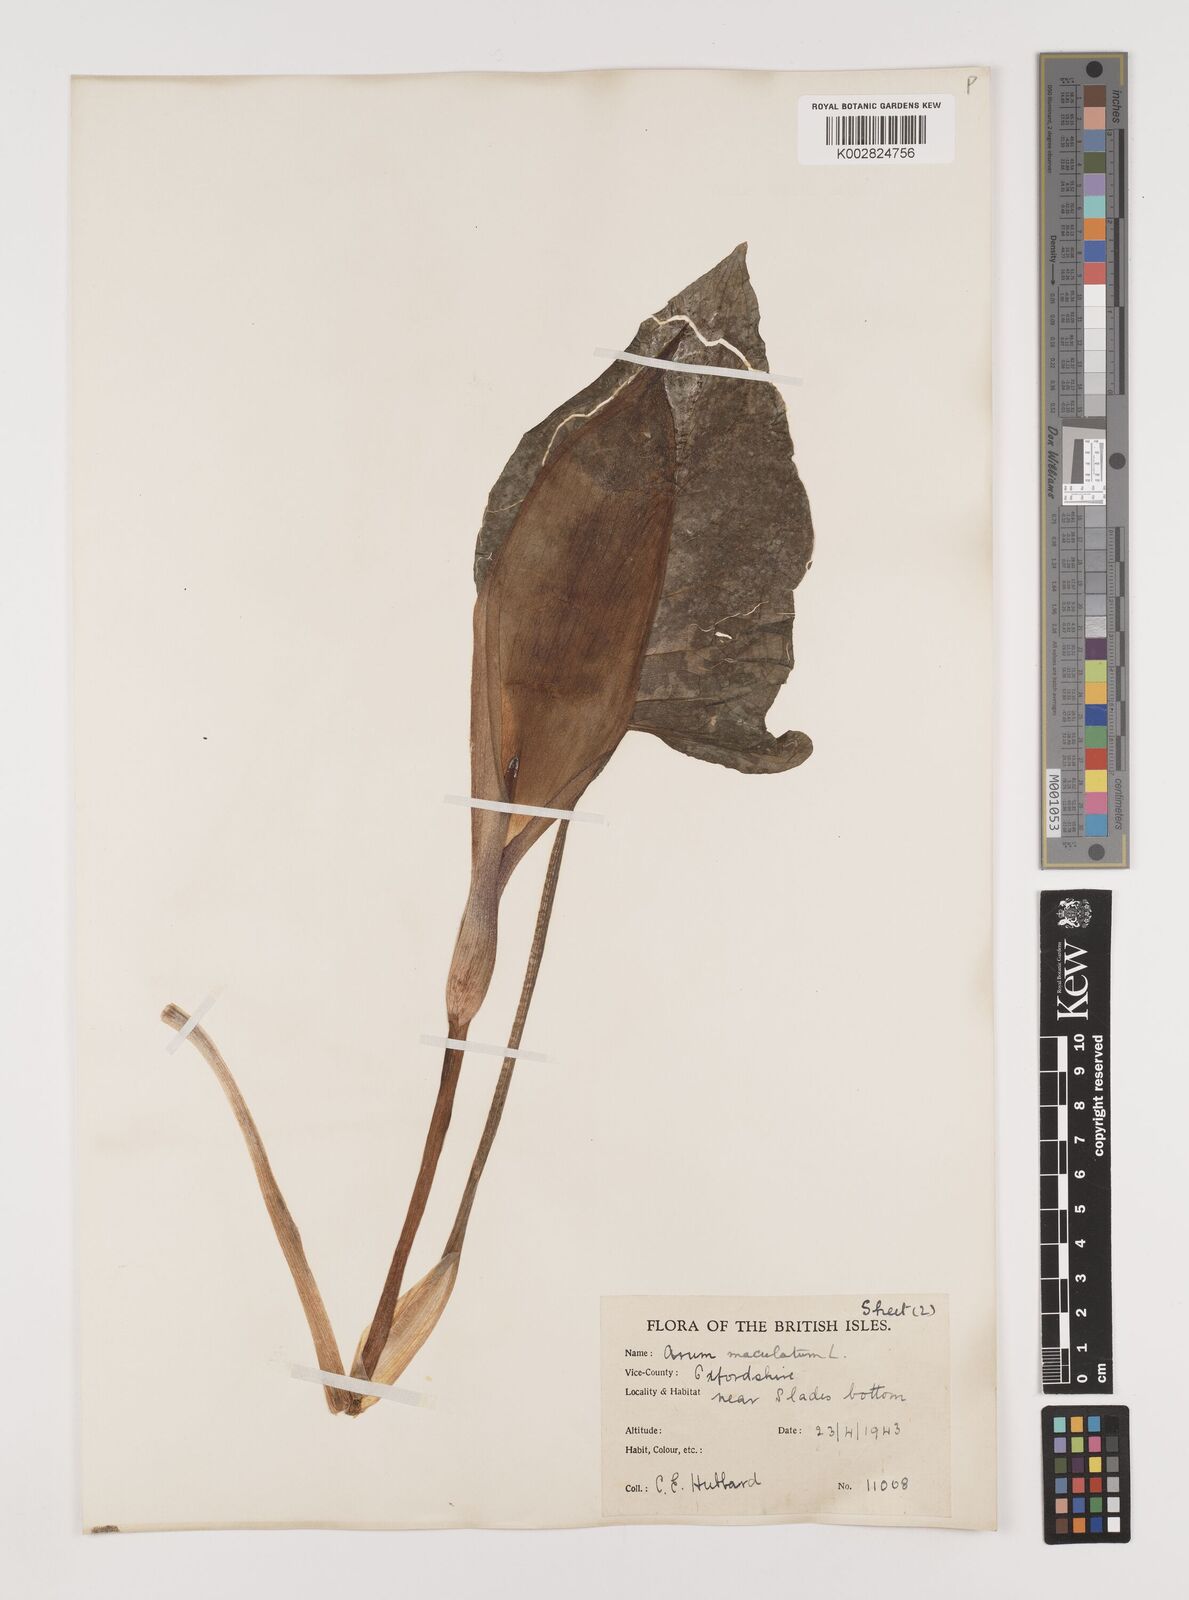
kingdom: Plantae
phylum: Tracheophyta
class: Liliopsida
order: Alismatales
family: Araceae
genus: Arum
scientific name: Arum maculatum
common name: Lords-and-ladies
